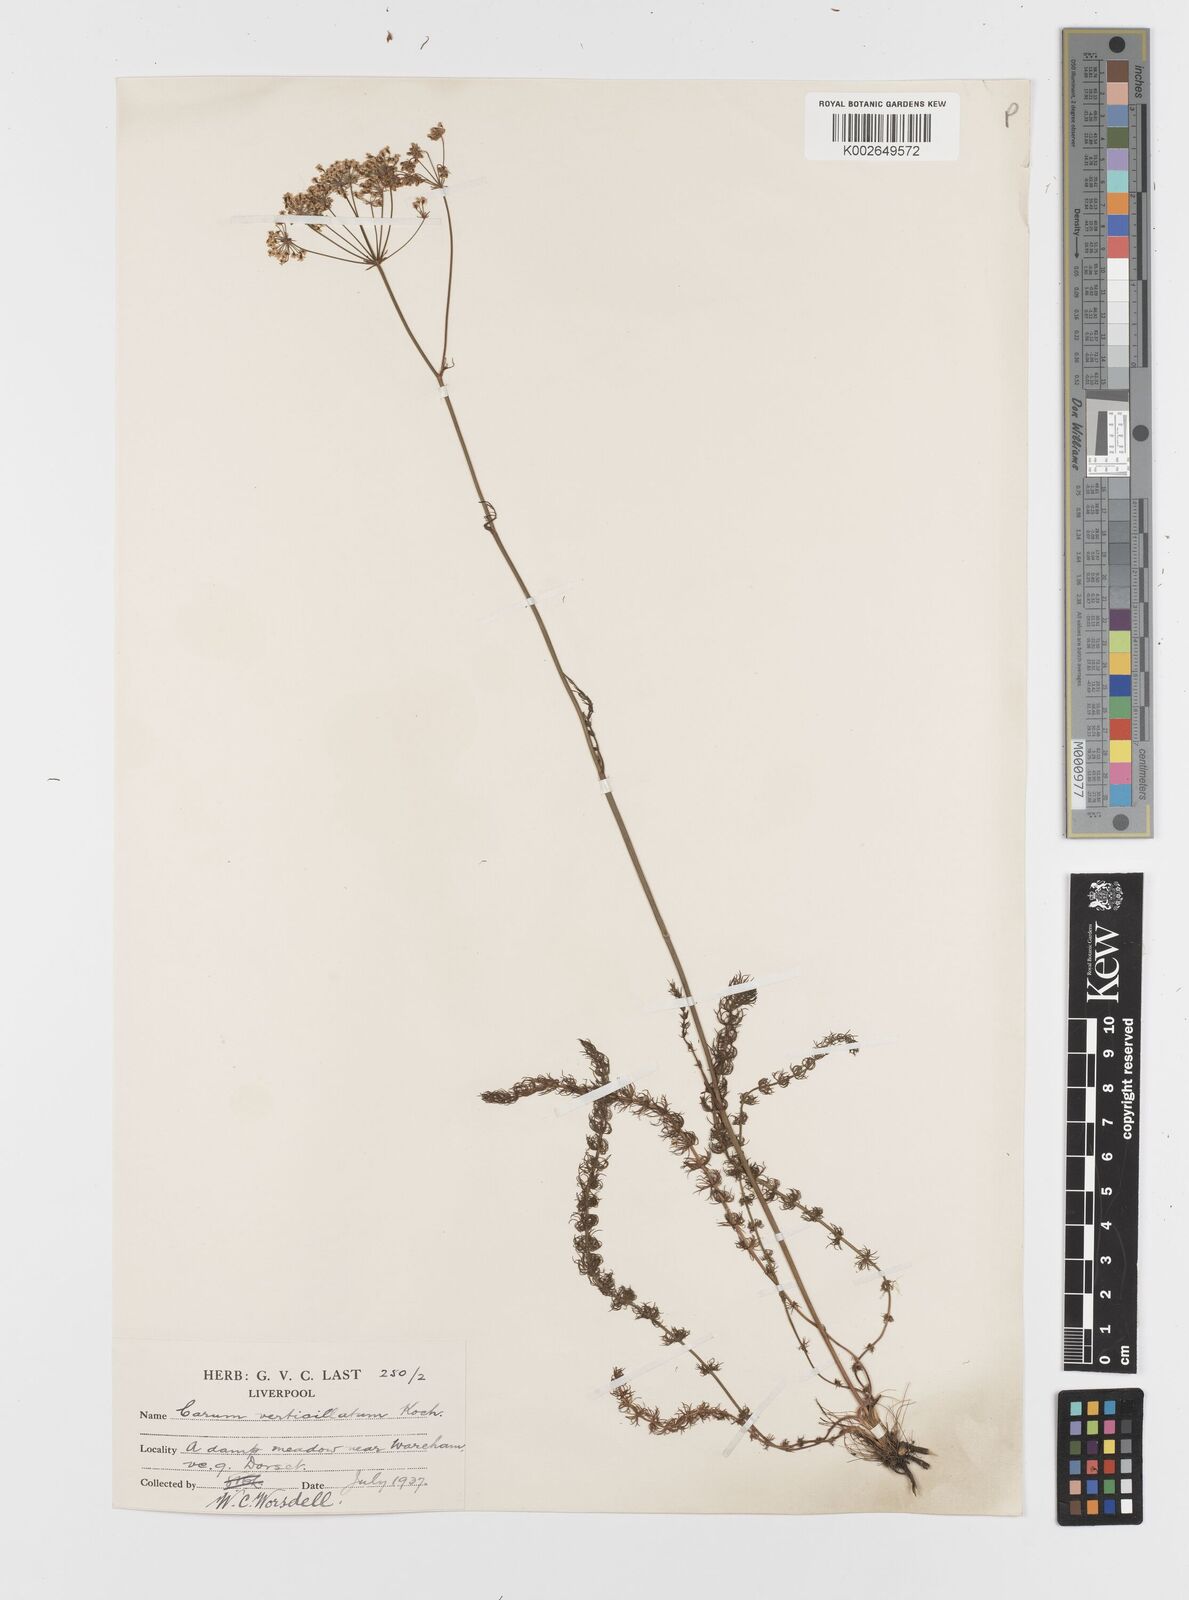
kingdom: Plantae
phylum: Tracheophyta
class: Magnoliopsida
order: Apiales
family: Apiaceae
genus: Trocdaris
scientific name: Trocdaris verticillatum
